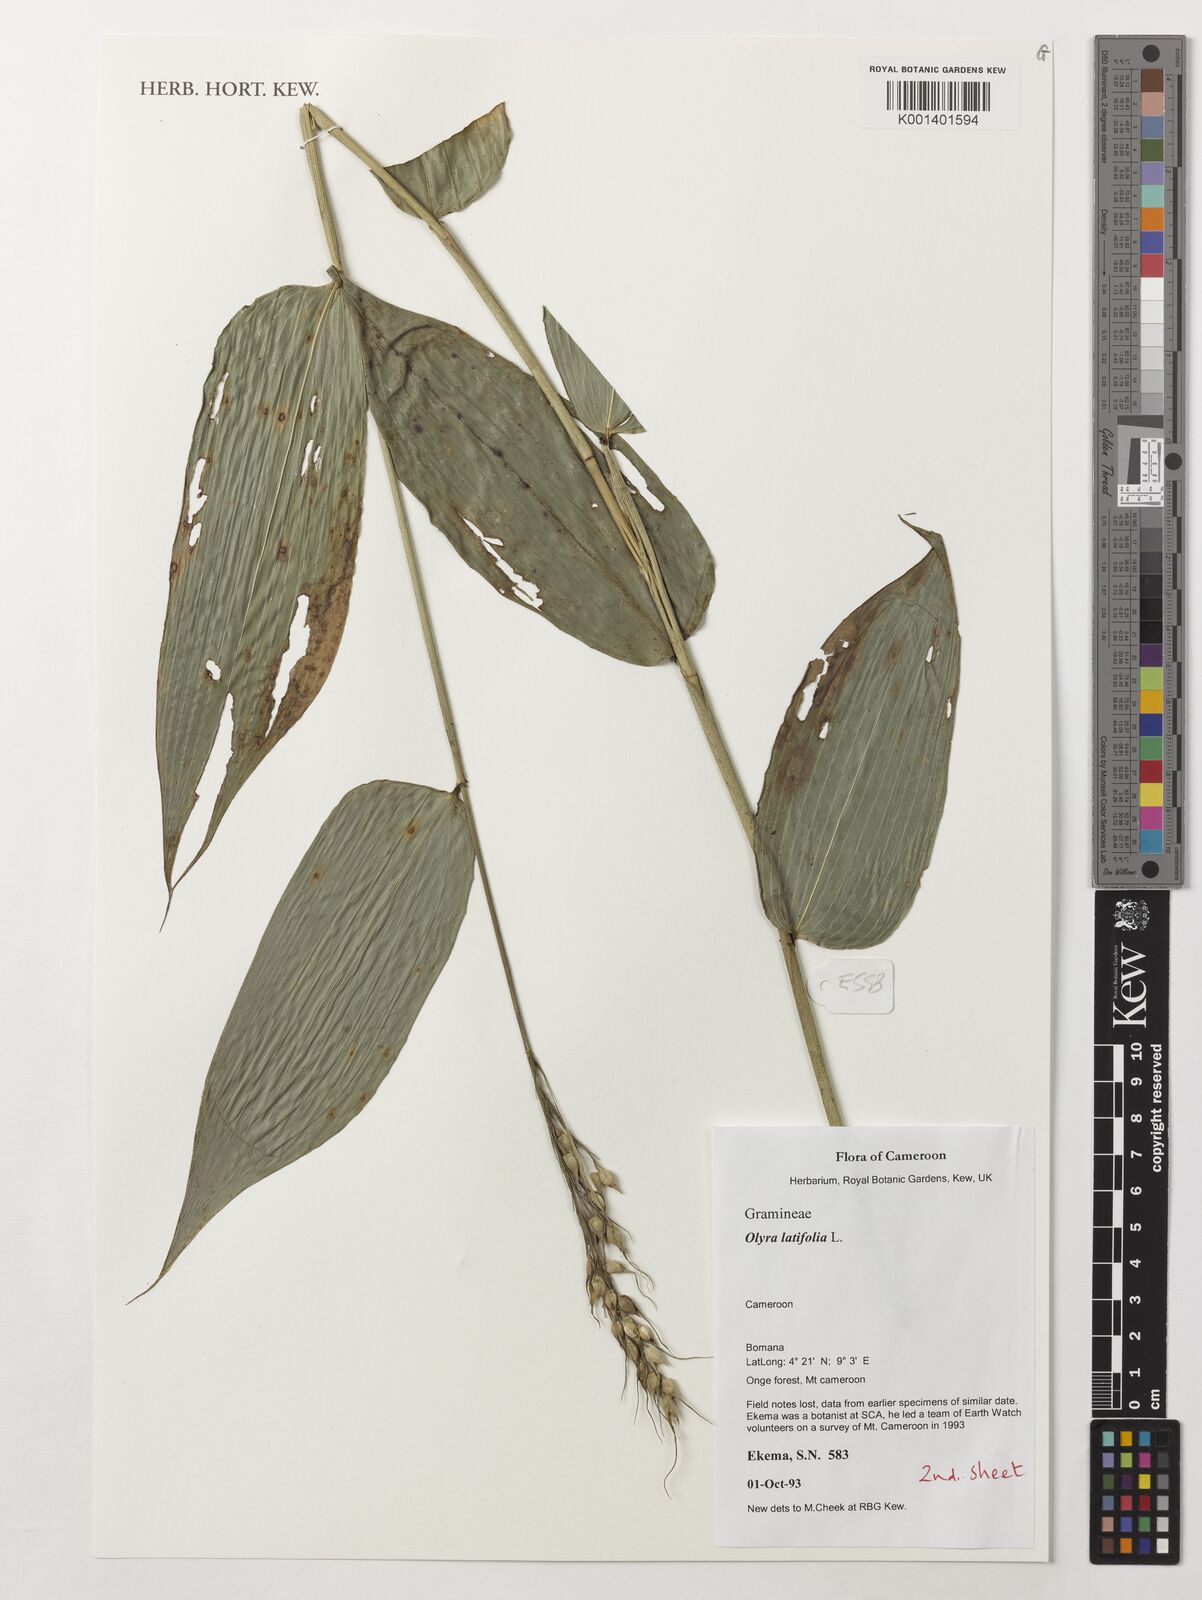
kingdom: Plantae
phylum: Tracheophyta
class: Liliopsida
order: Poales
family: Poaceae
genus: Olyra
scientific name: Olyra latifolia
